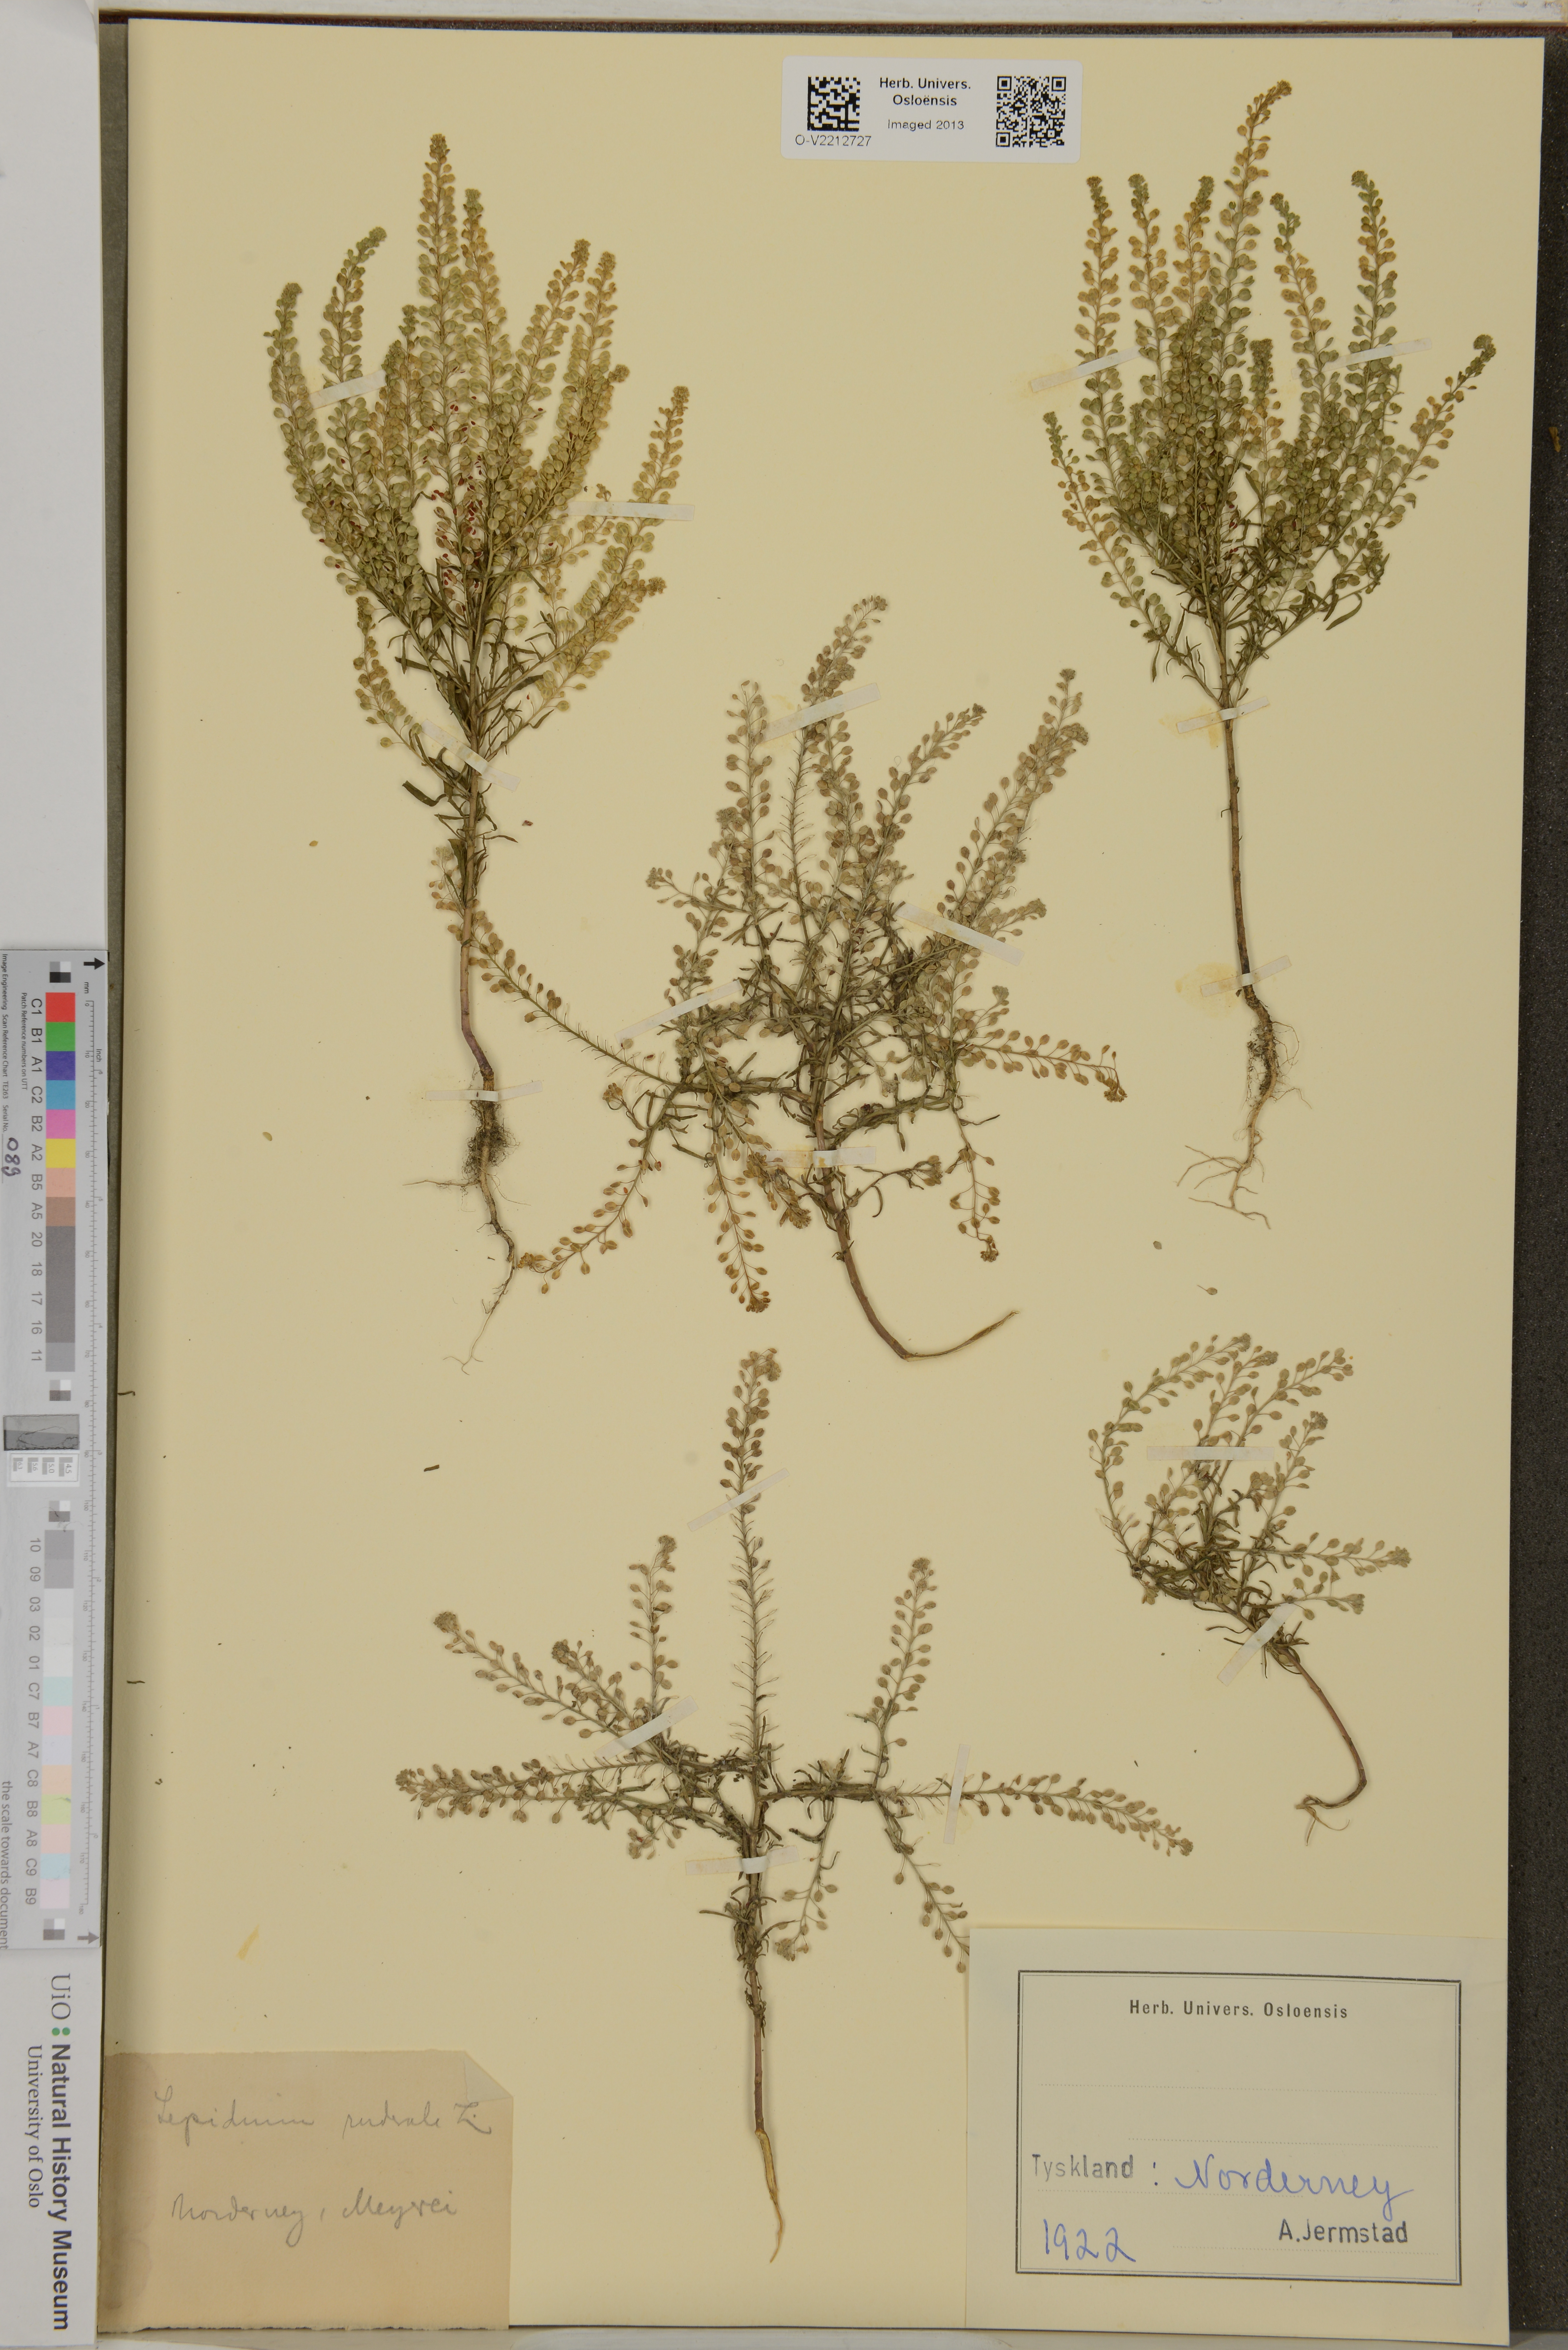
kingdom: Plantae
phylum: Tracheophyta
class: Magnoliopsida
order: Brassicales
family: Brassicaceae
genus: Lepidium
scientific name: Lepidium ruderale
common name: Narrow-leaved pepperwort
